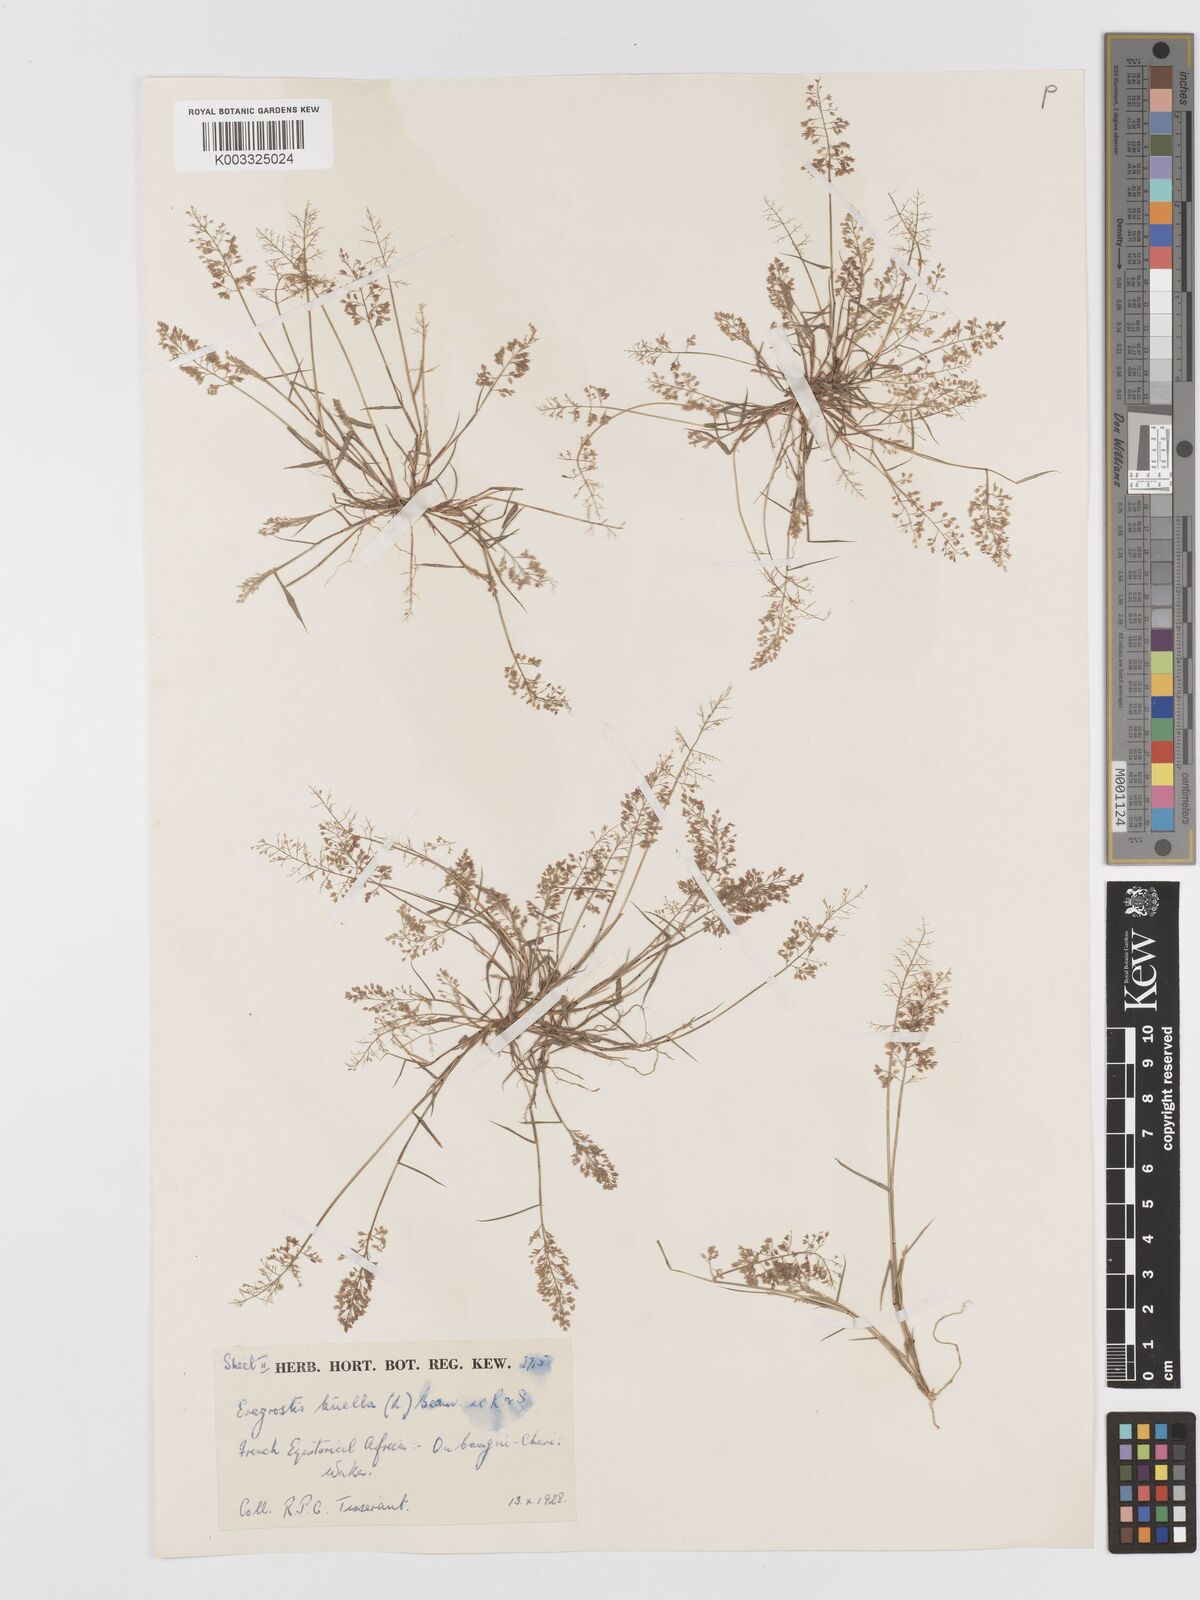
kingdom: Plantae
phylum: Tracheophyta
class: Liliopsida
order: Poales
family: Poaceae
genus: Eragrostis
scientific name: Eragrostis tenella
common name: Japanese lovegrass
